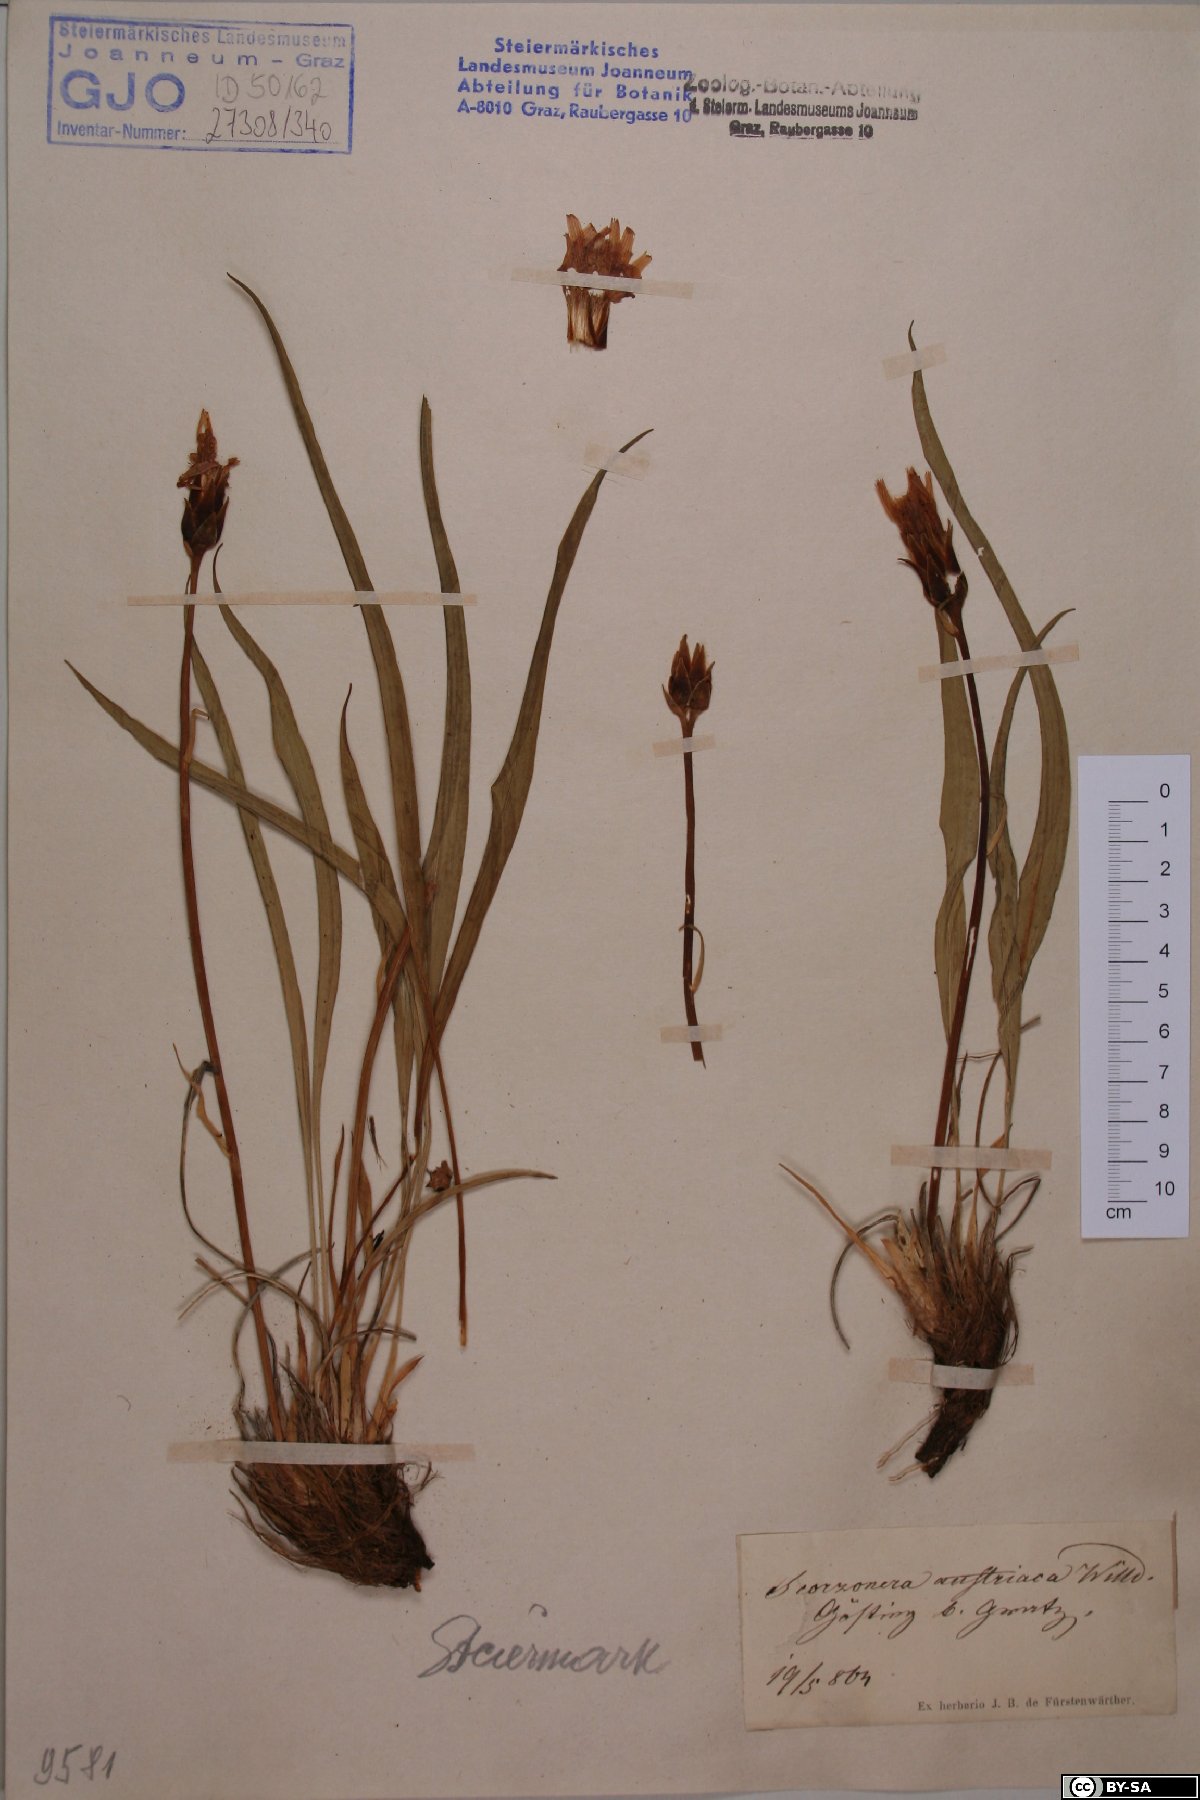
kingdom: Plantae
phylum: Tracheophyta
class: Magnoliopsida
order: Asterales
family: Asteraceae
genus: Takhtajaniantha
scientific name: Takhtajaniantha austriaca
